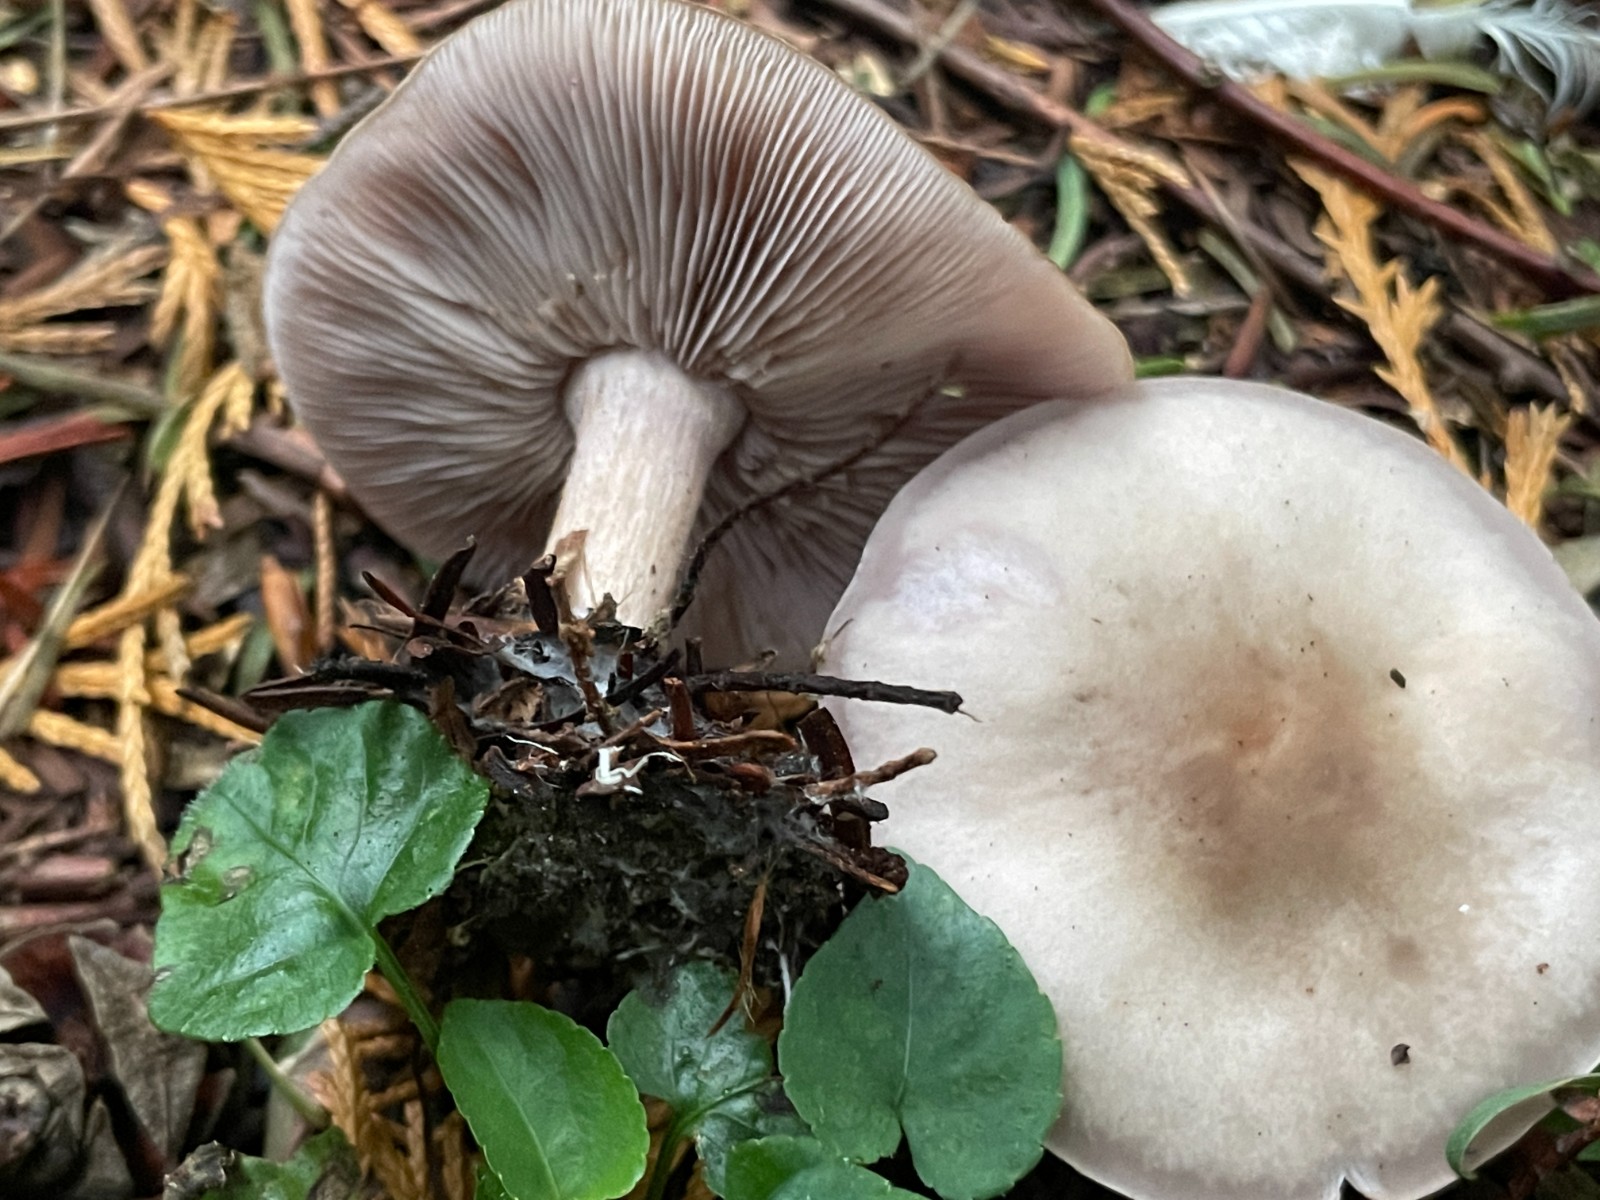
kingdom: Fungi
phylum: Basidiomycota
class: Agaricomycetes
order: Agaricales
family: Tricholomataceae
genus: Lepista
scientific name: Lepista nuda
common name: violet hekseringshat
